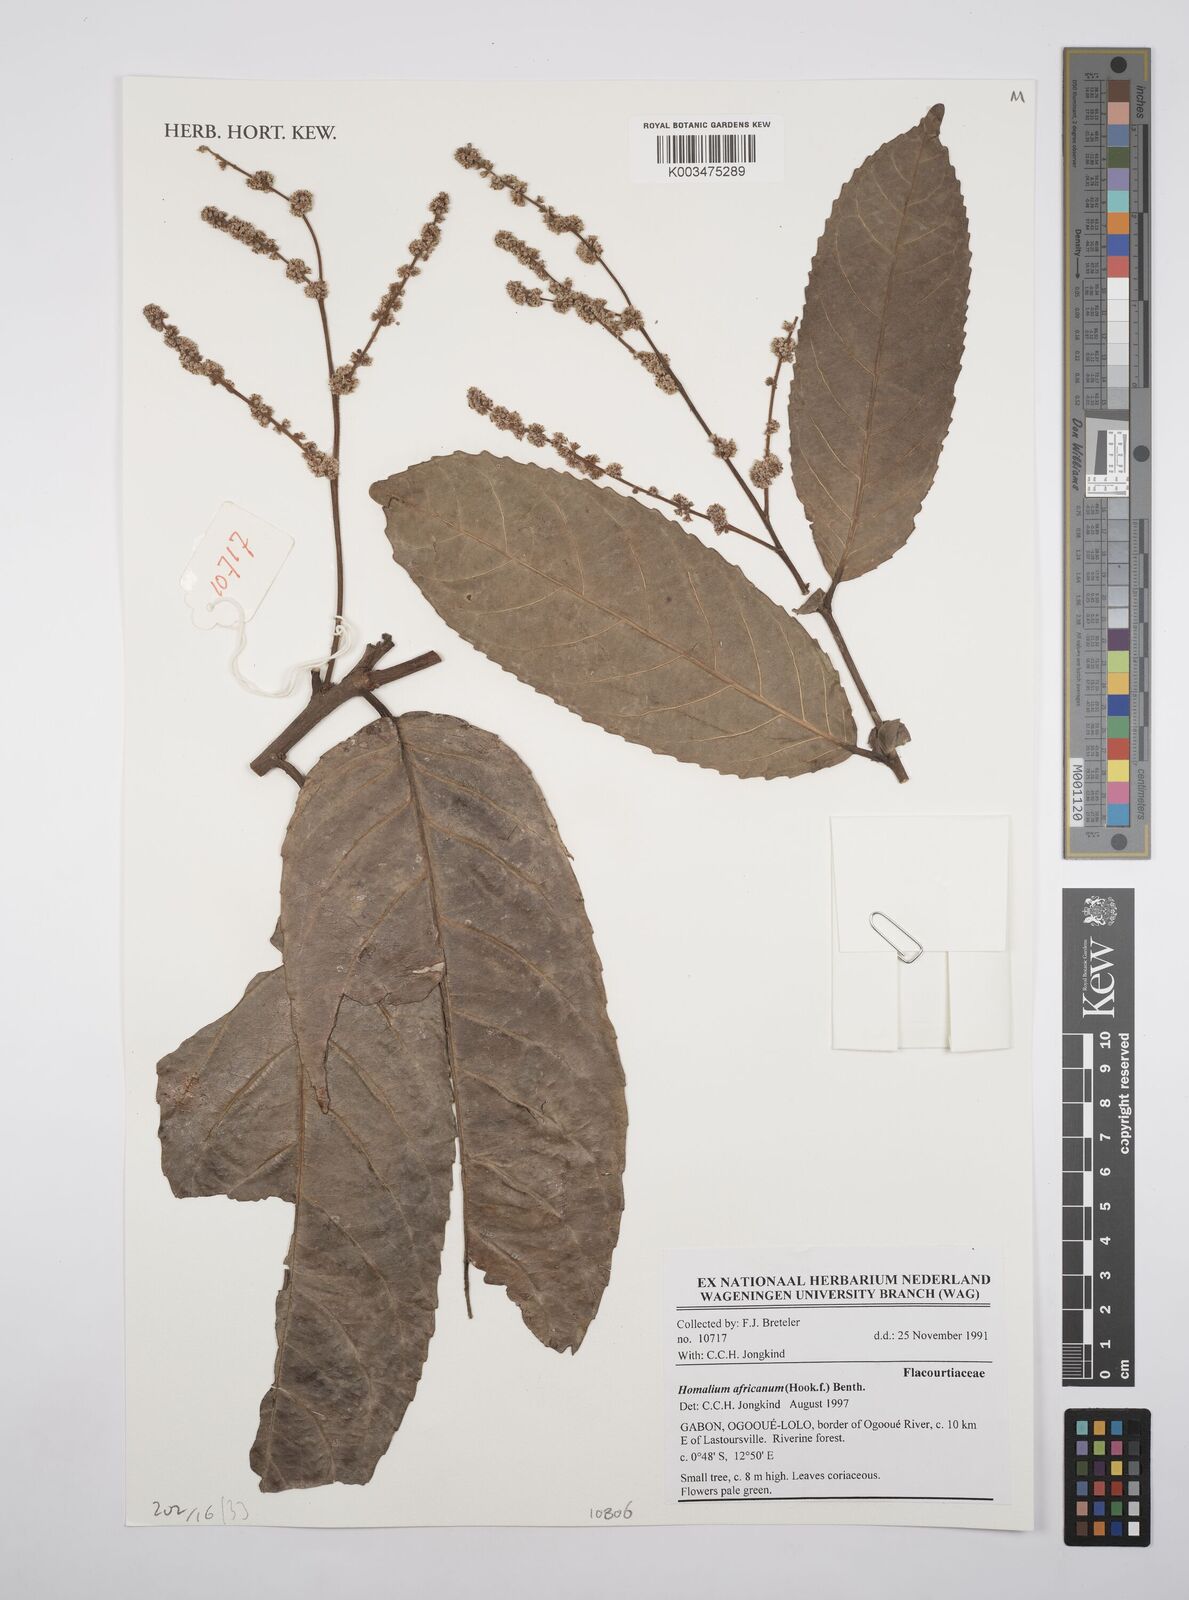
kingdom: Plantae
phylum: Tracheophyta
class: Magnoliopsida
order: Malpighiales
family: Salicaceae
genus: Homalium
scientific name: Homalium africanum
